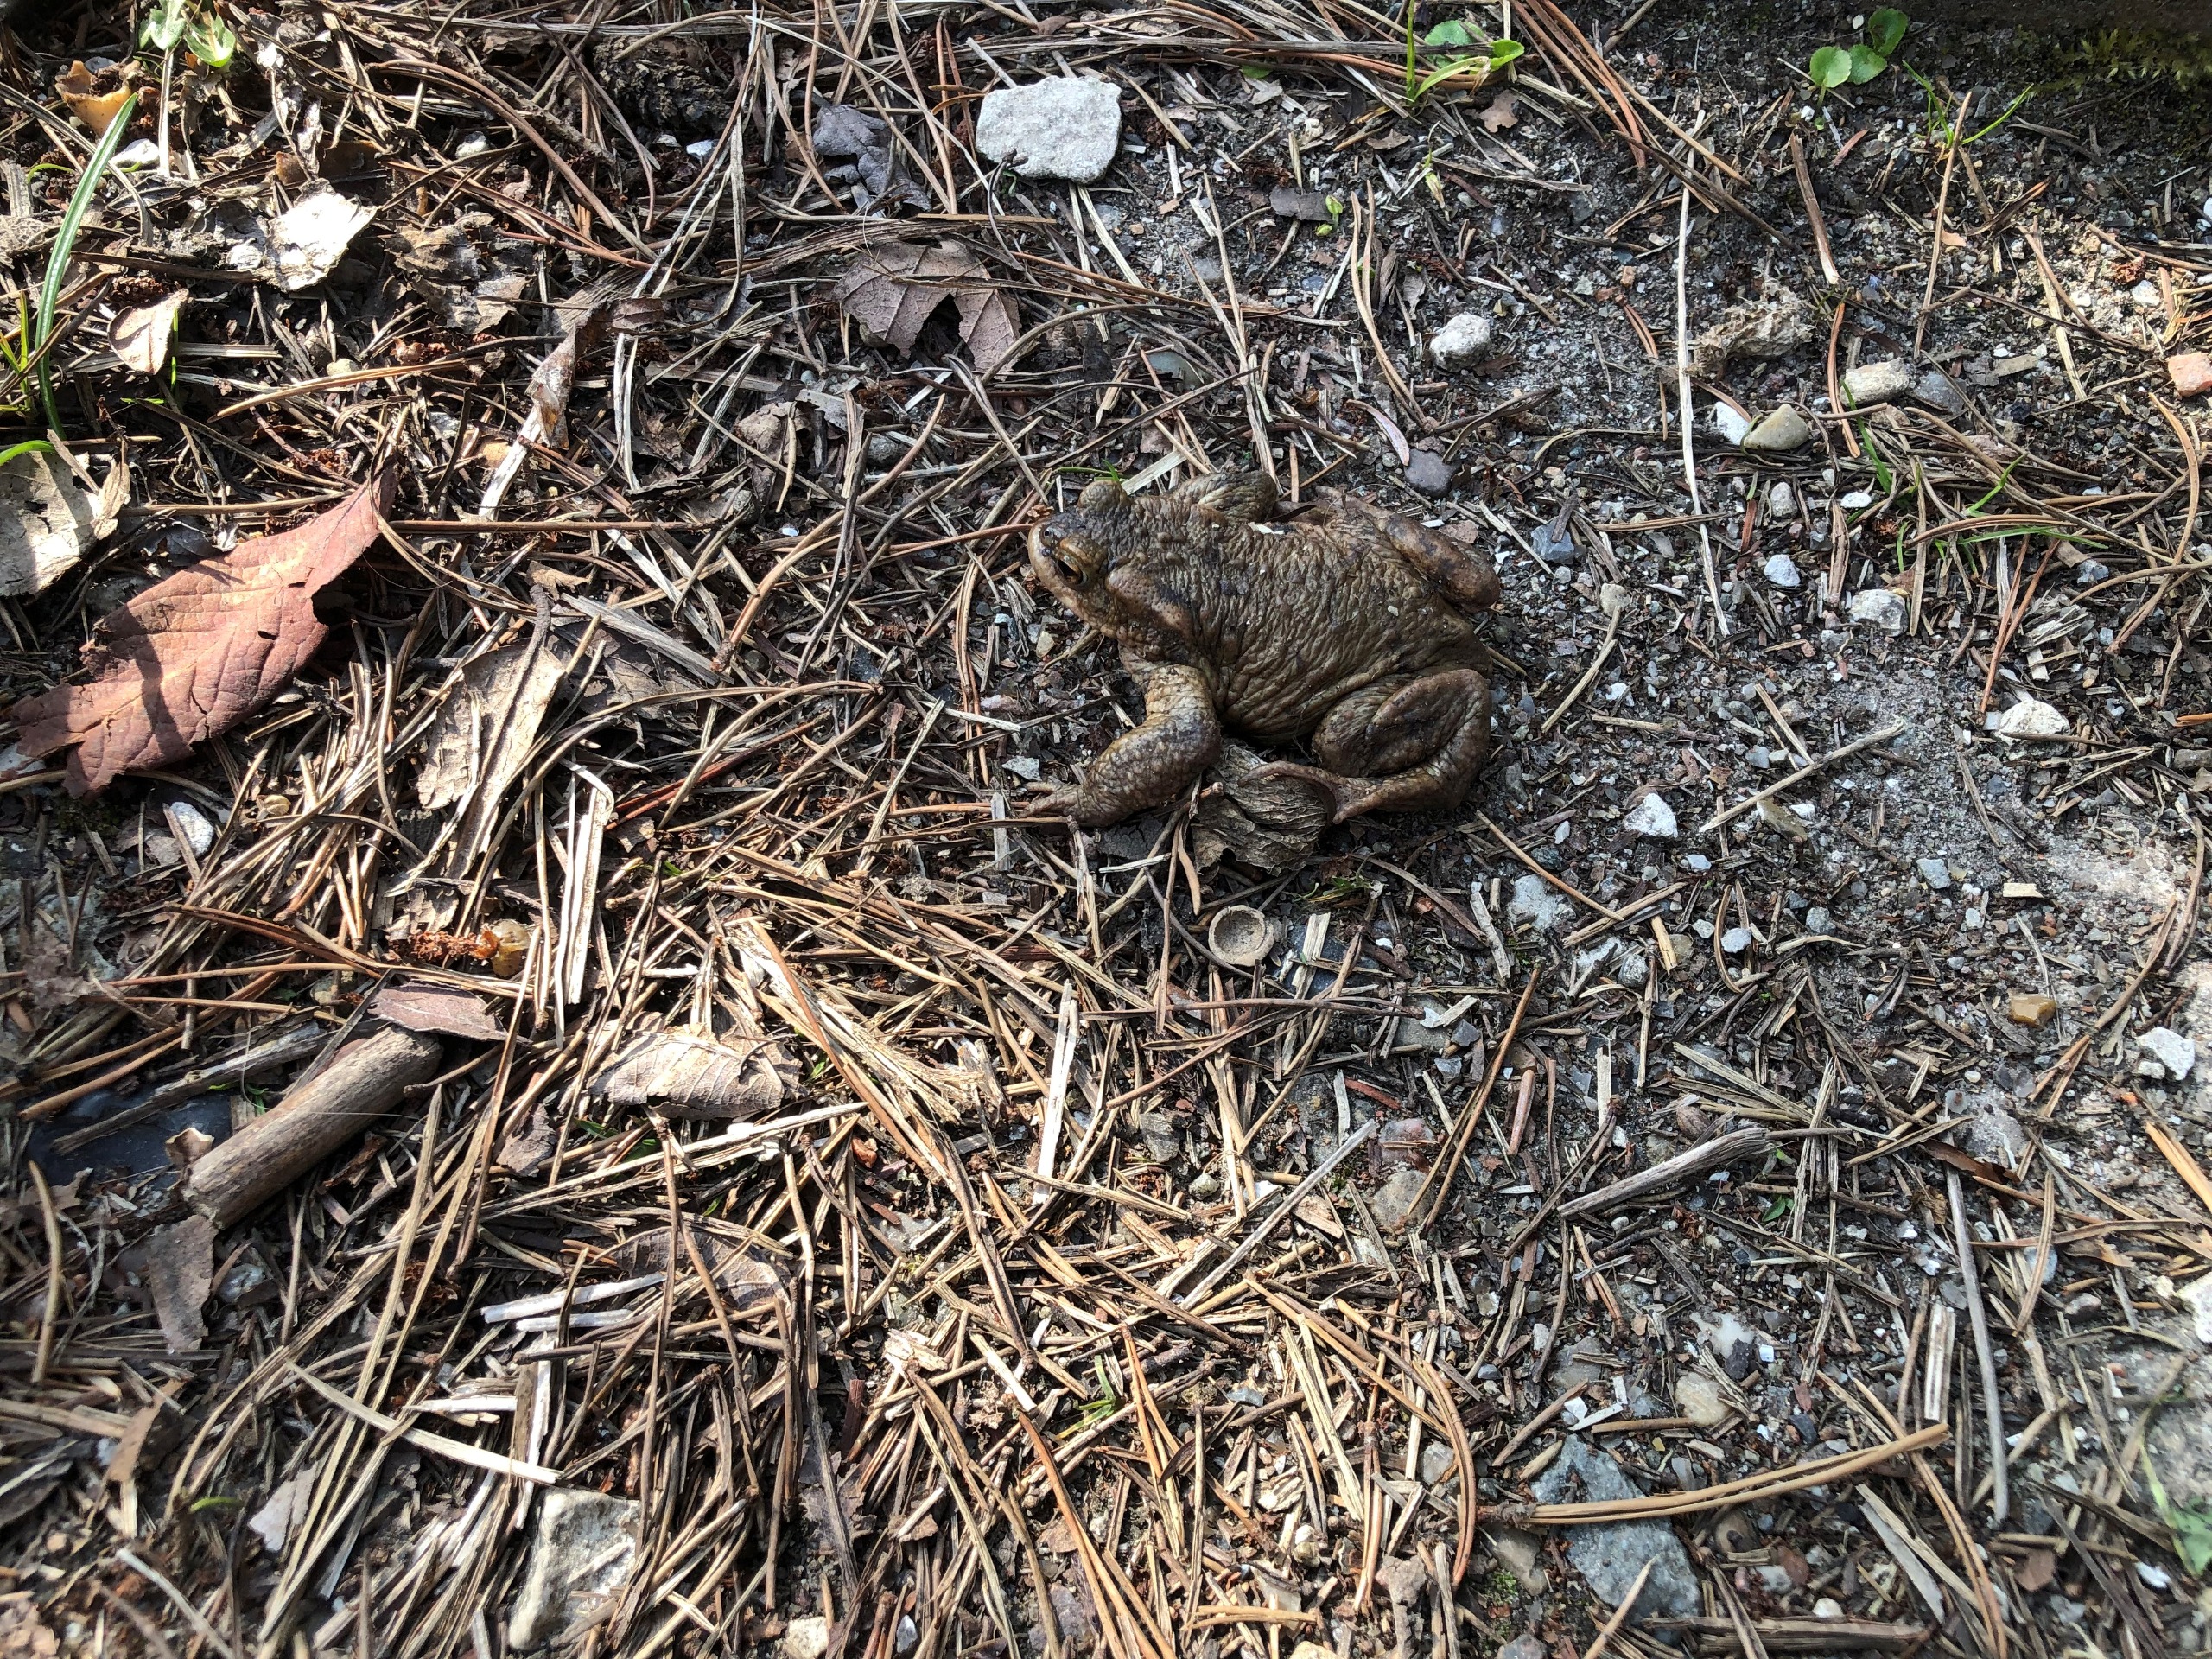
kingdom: Animalia
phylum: Chordata
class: Amphibia
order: Anura
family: Bufonidae
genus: Bufo
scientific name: Bufo bufo
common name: Skrubtudse
